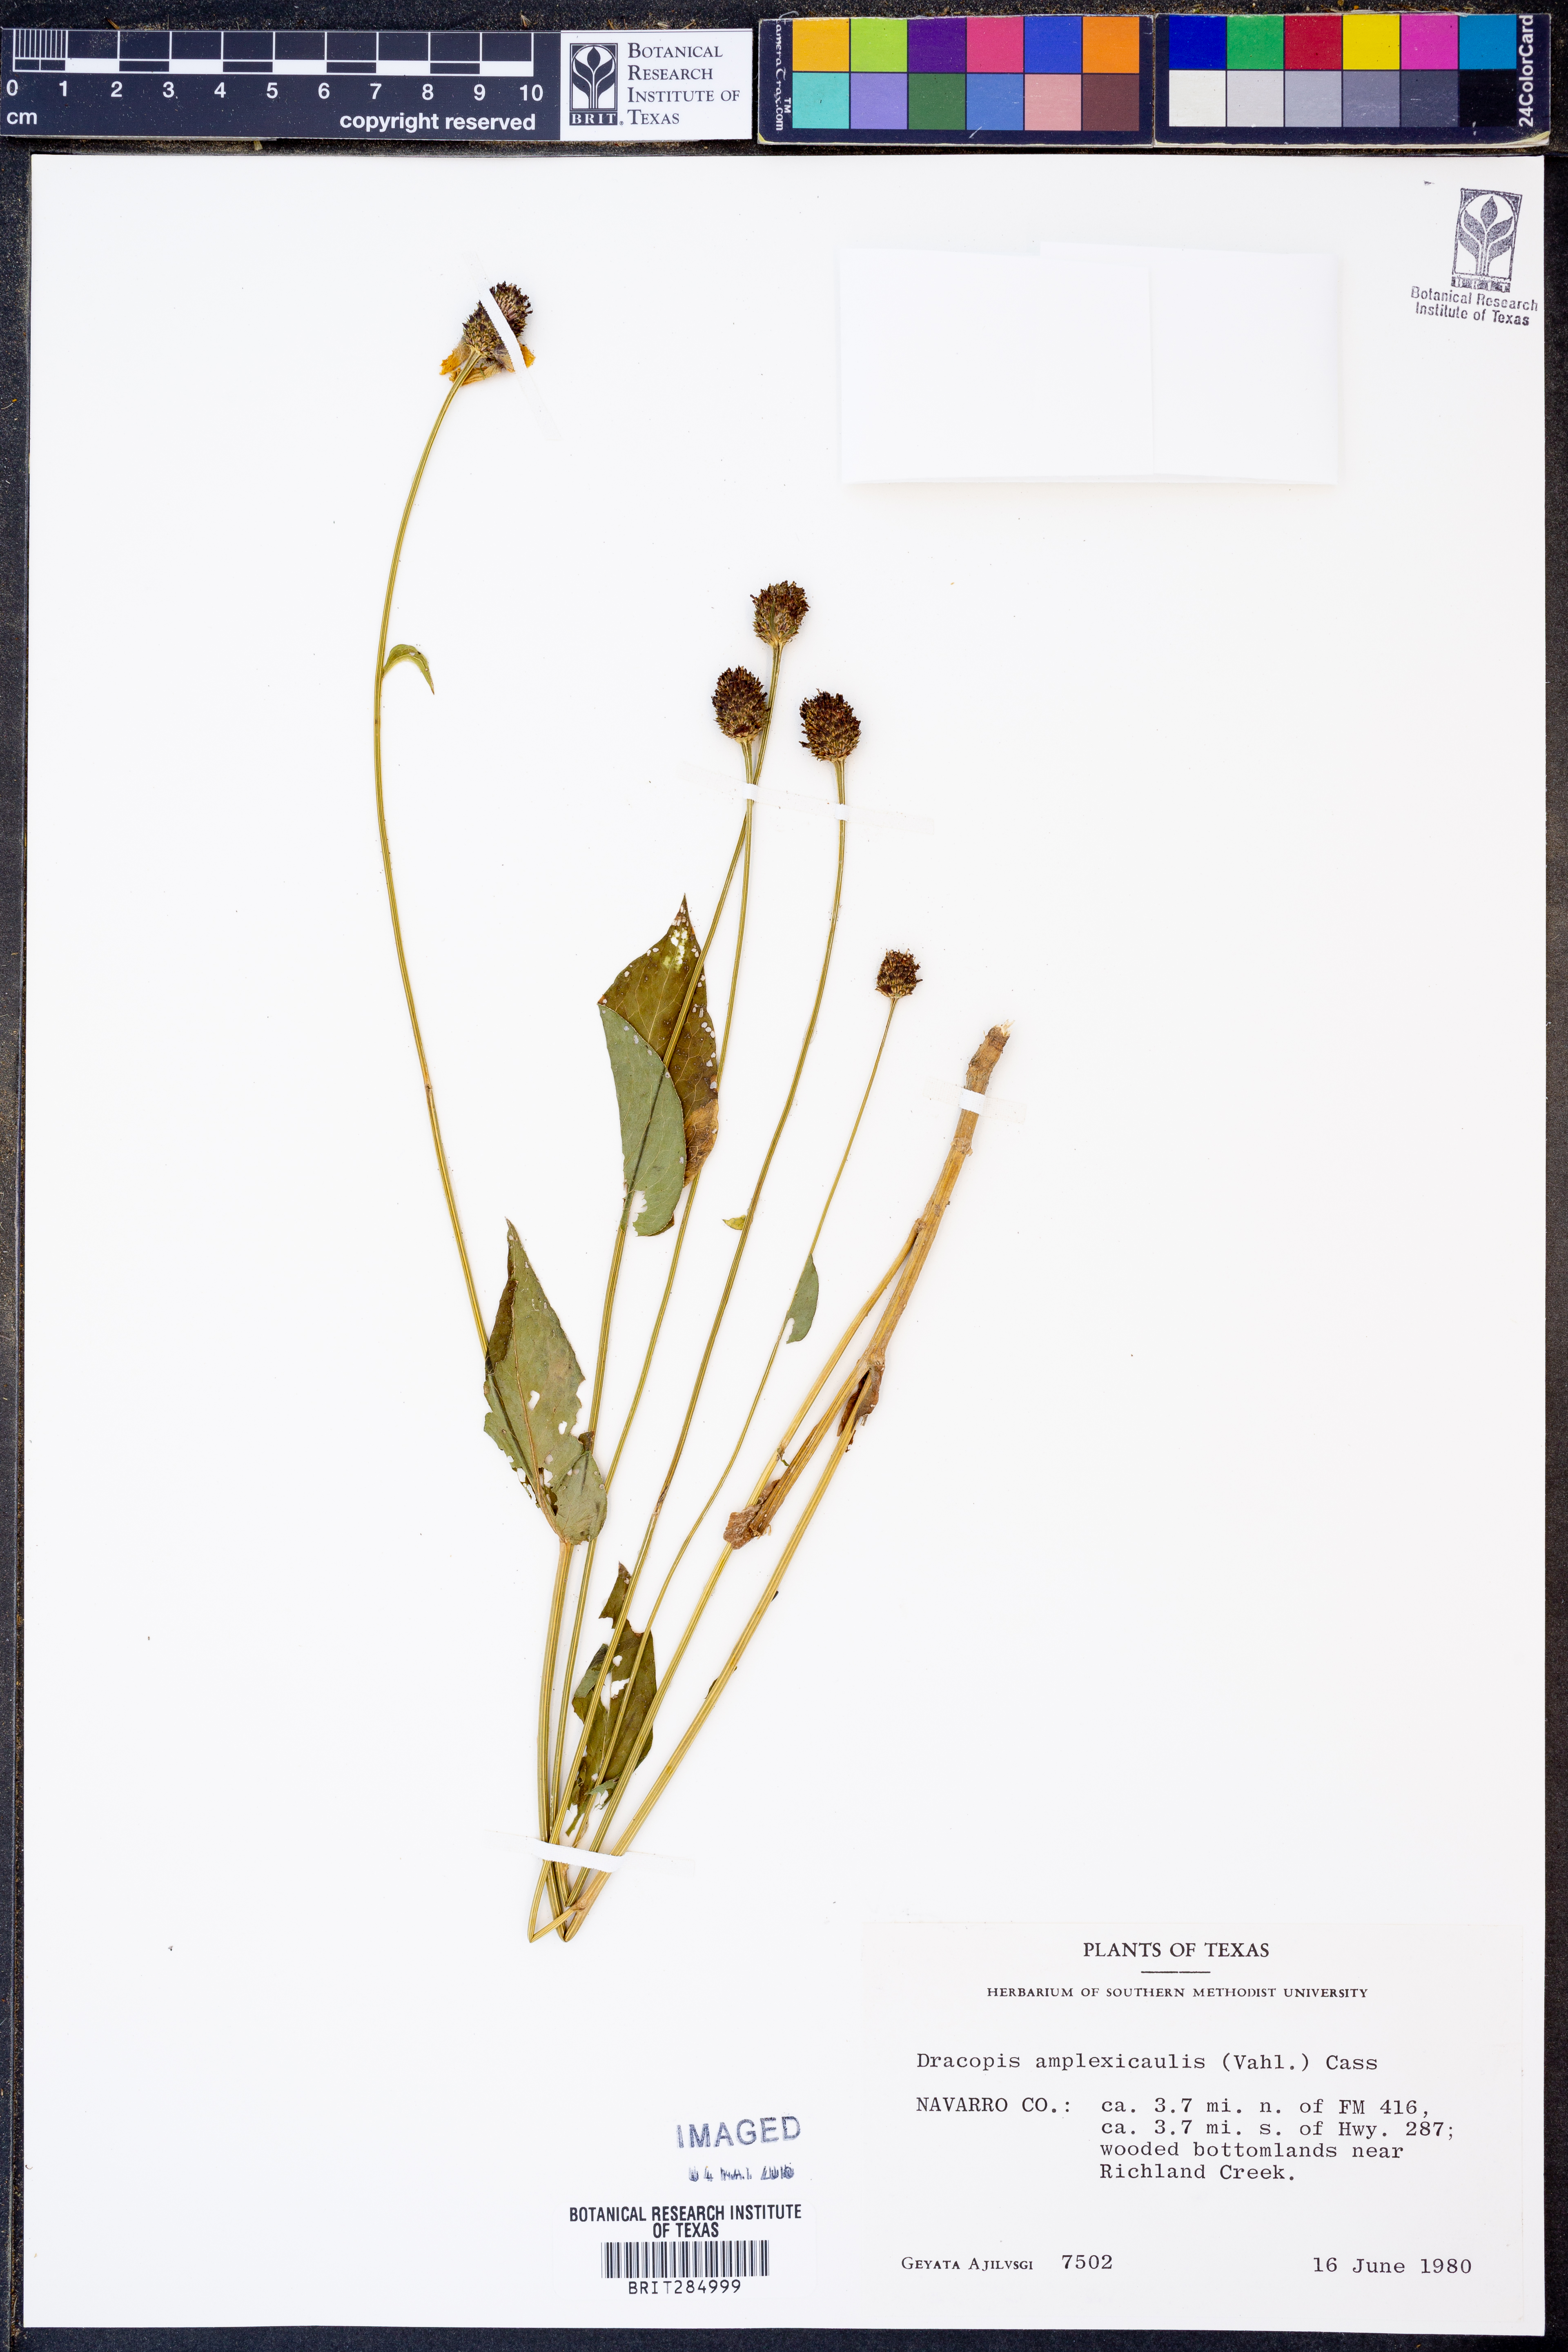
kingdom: Plantae
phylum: Tracheophyta
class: Magnoliopsida
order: Asterales
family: Asteraceae
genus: Rudbeckia
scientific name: Rudbeckia amplexicaulis
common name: Clasping-leaf coneflower
